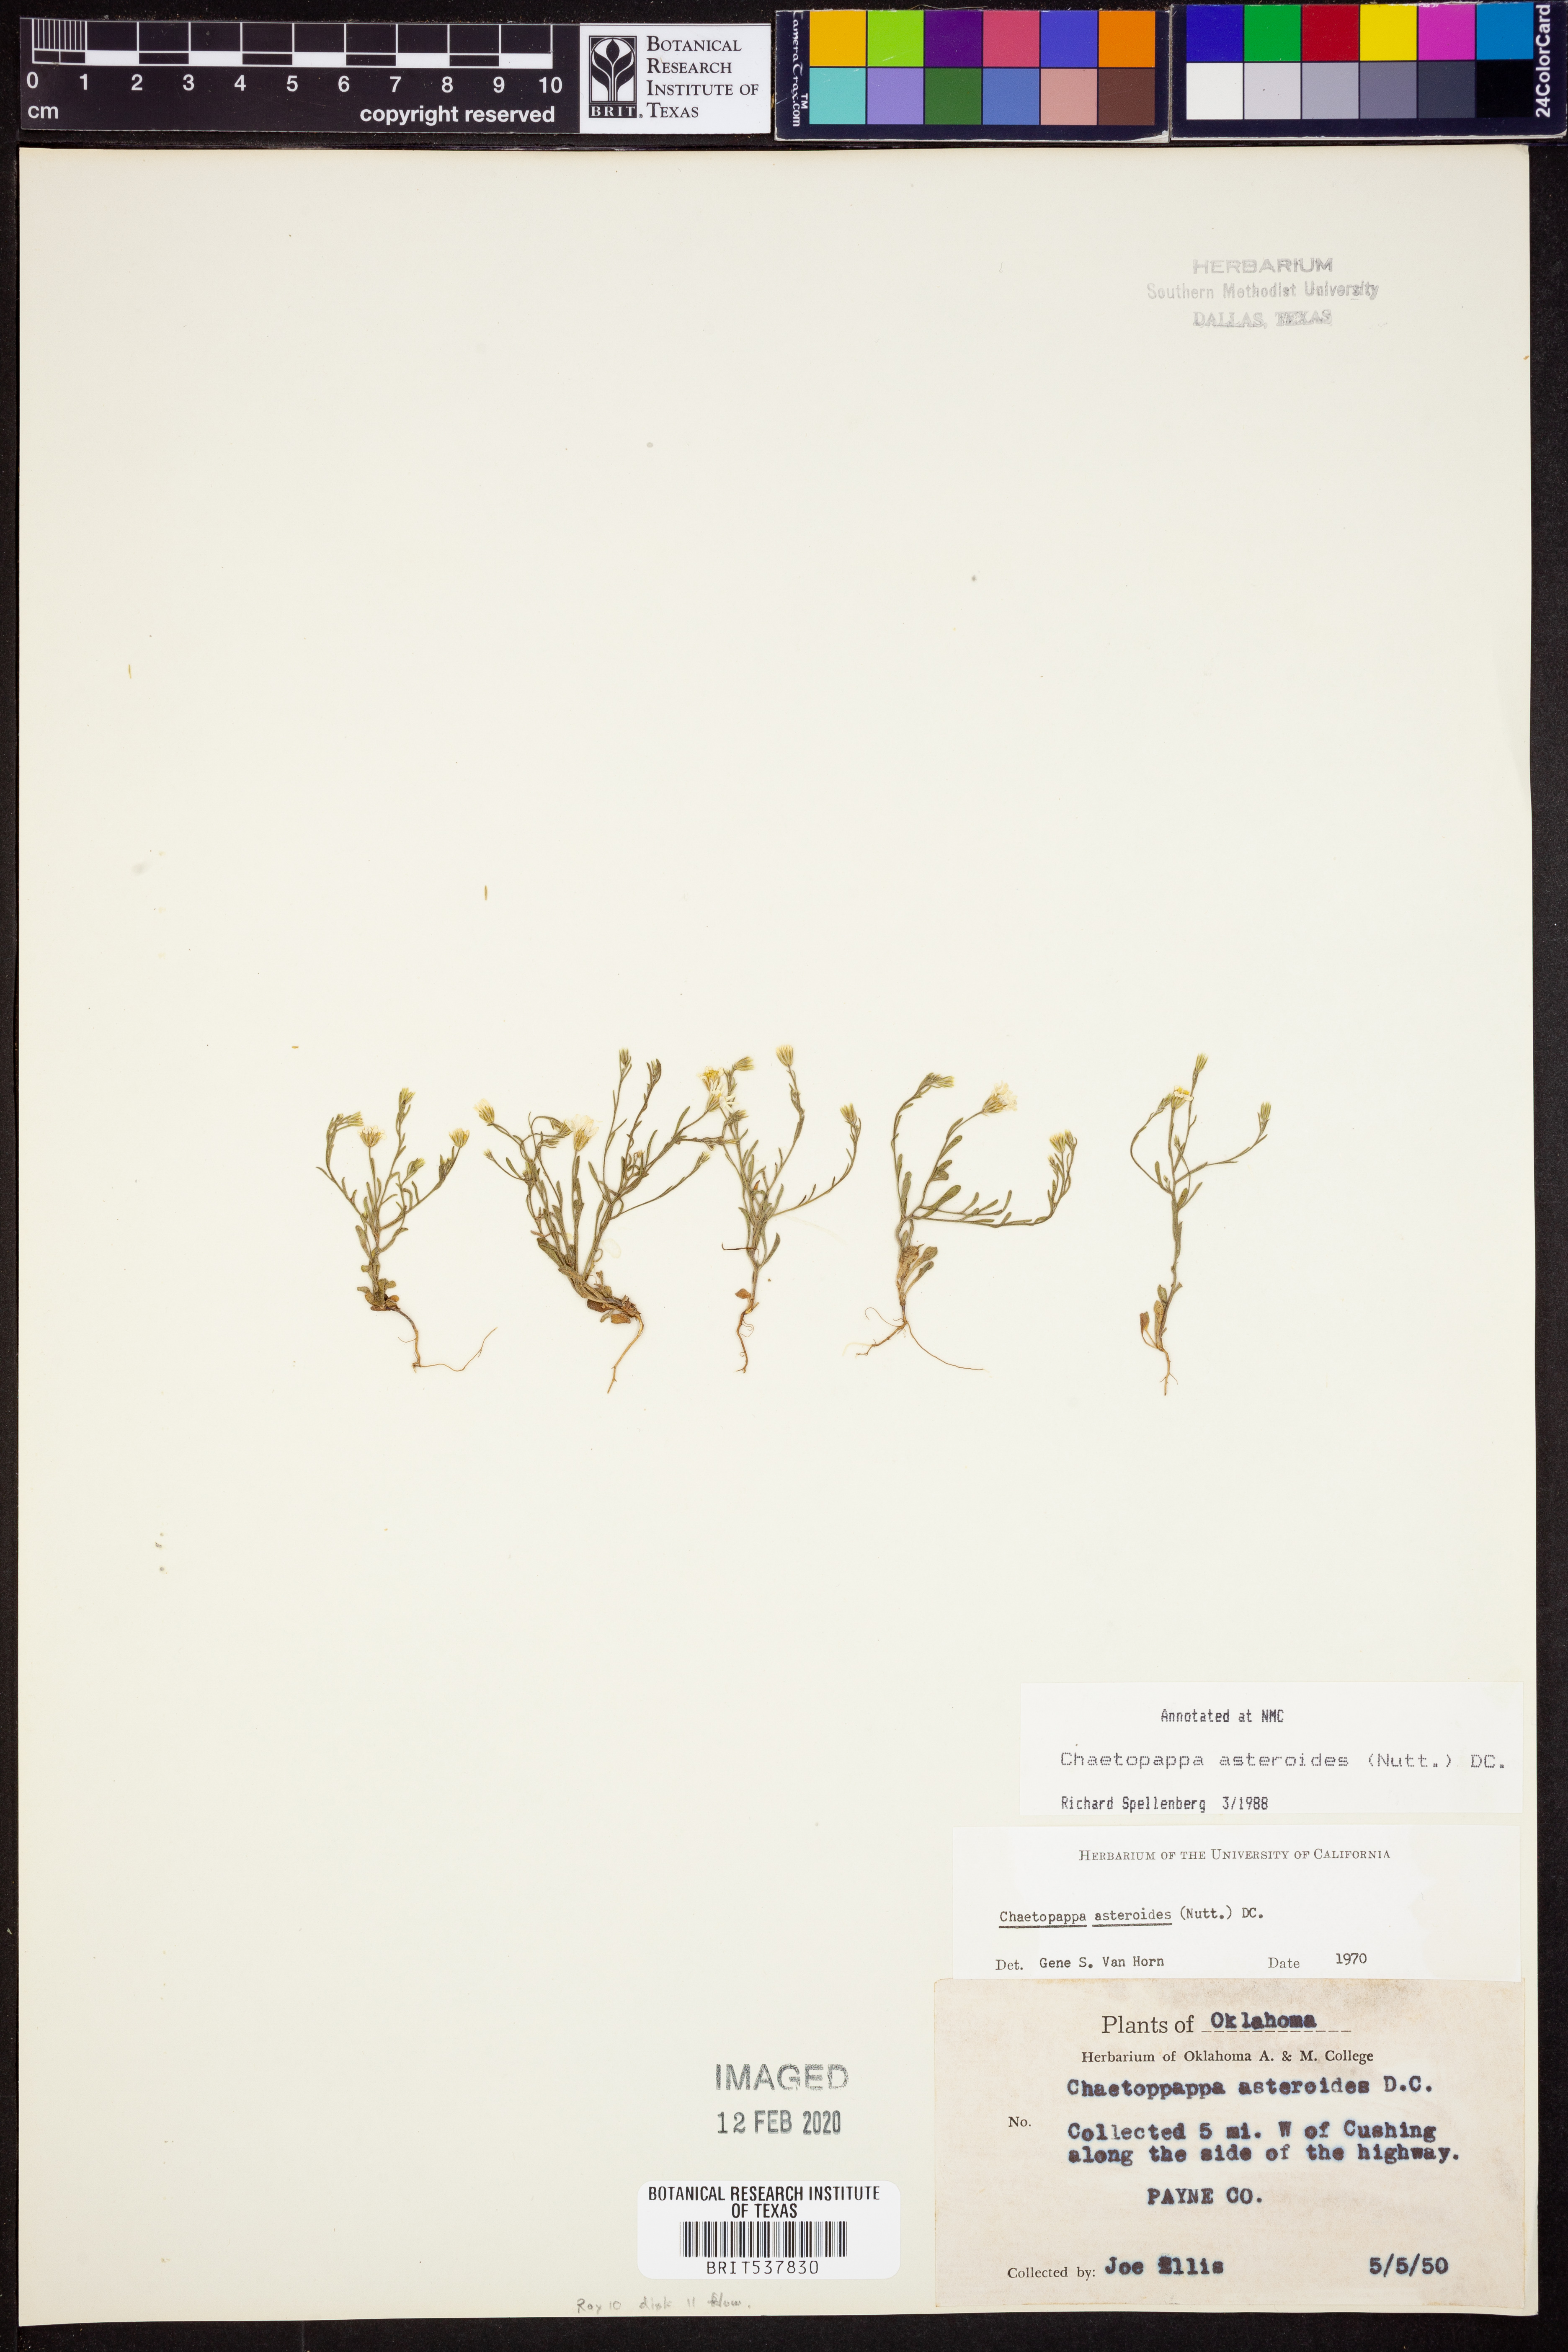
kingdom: Plantae
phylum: Tracheophyta
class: Magnoliopsida
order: Asterales
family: Asteraceae
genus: Chaetopappa
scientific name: Chaetopappa asteroides
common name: Tiny lazy daisy
